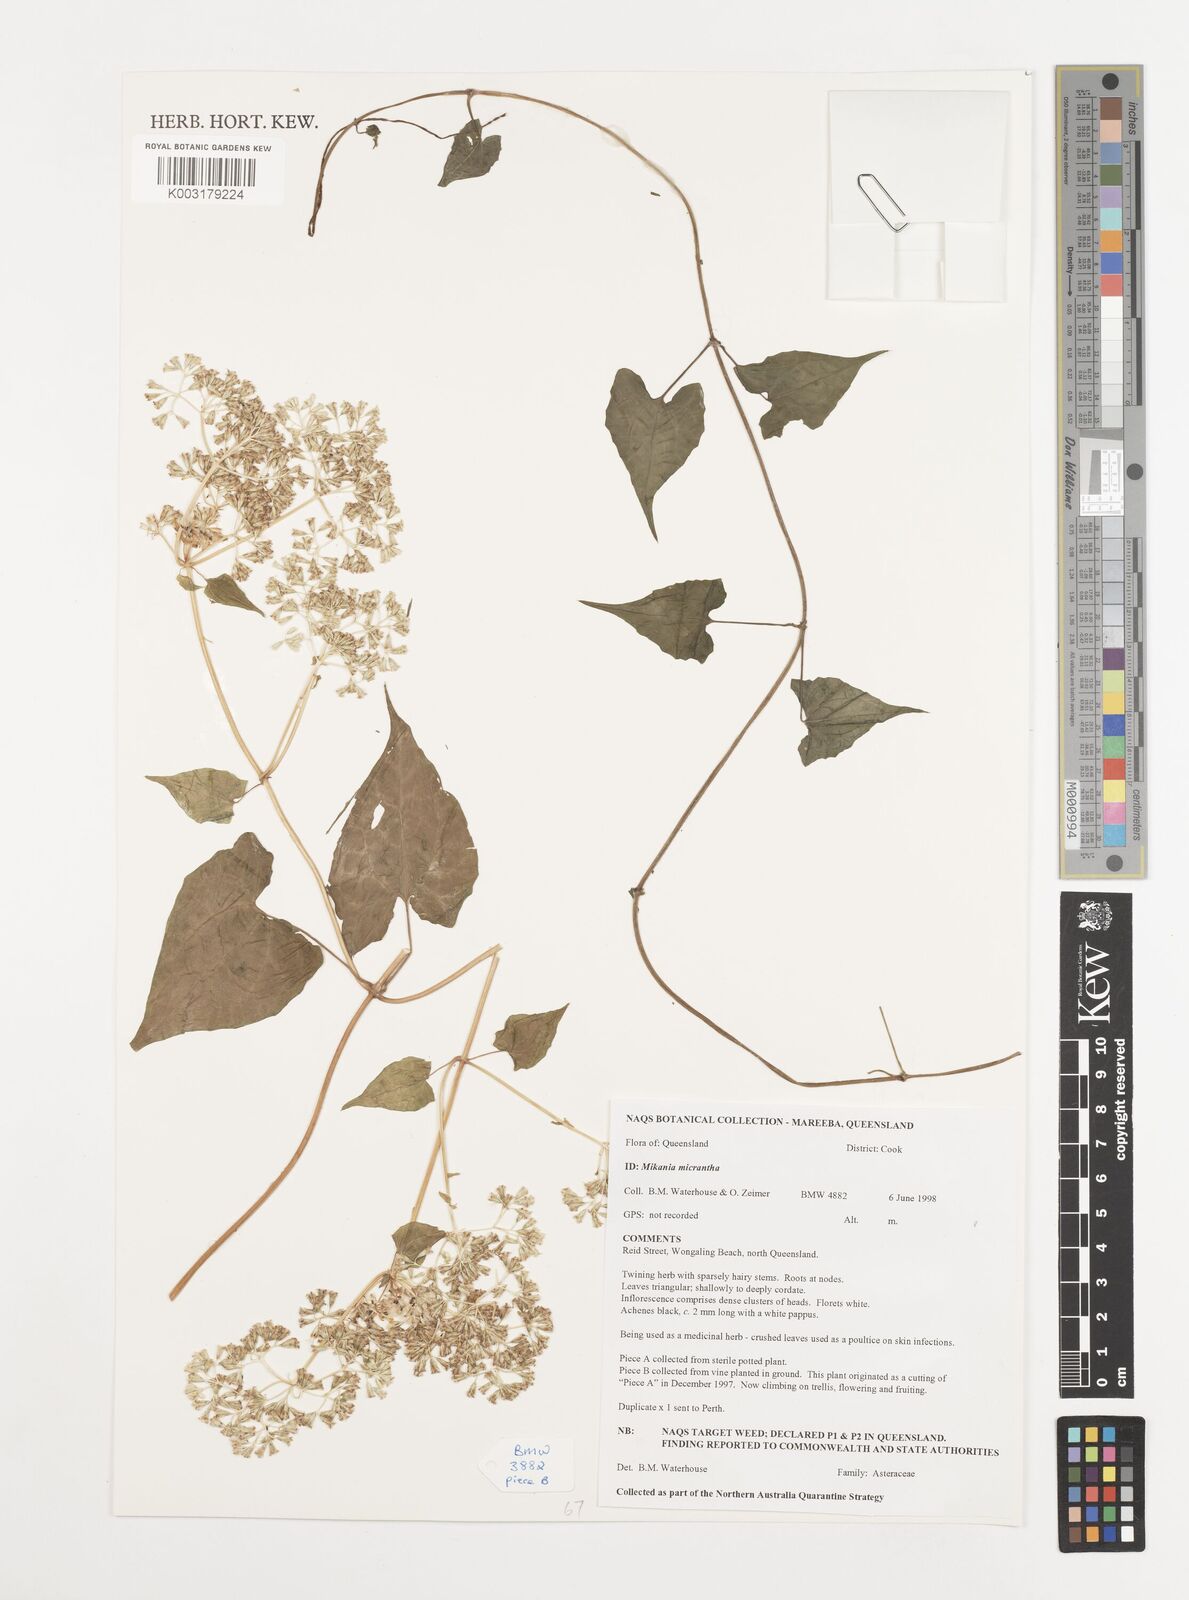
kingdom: Plantae
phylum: Tracheophyta
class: Magnoliopsida
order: Asterales
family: Asteraceae
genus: Mikania
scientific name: Mikania micrantha
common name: Mile-a-minute
